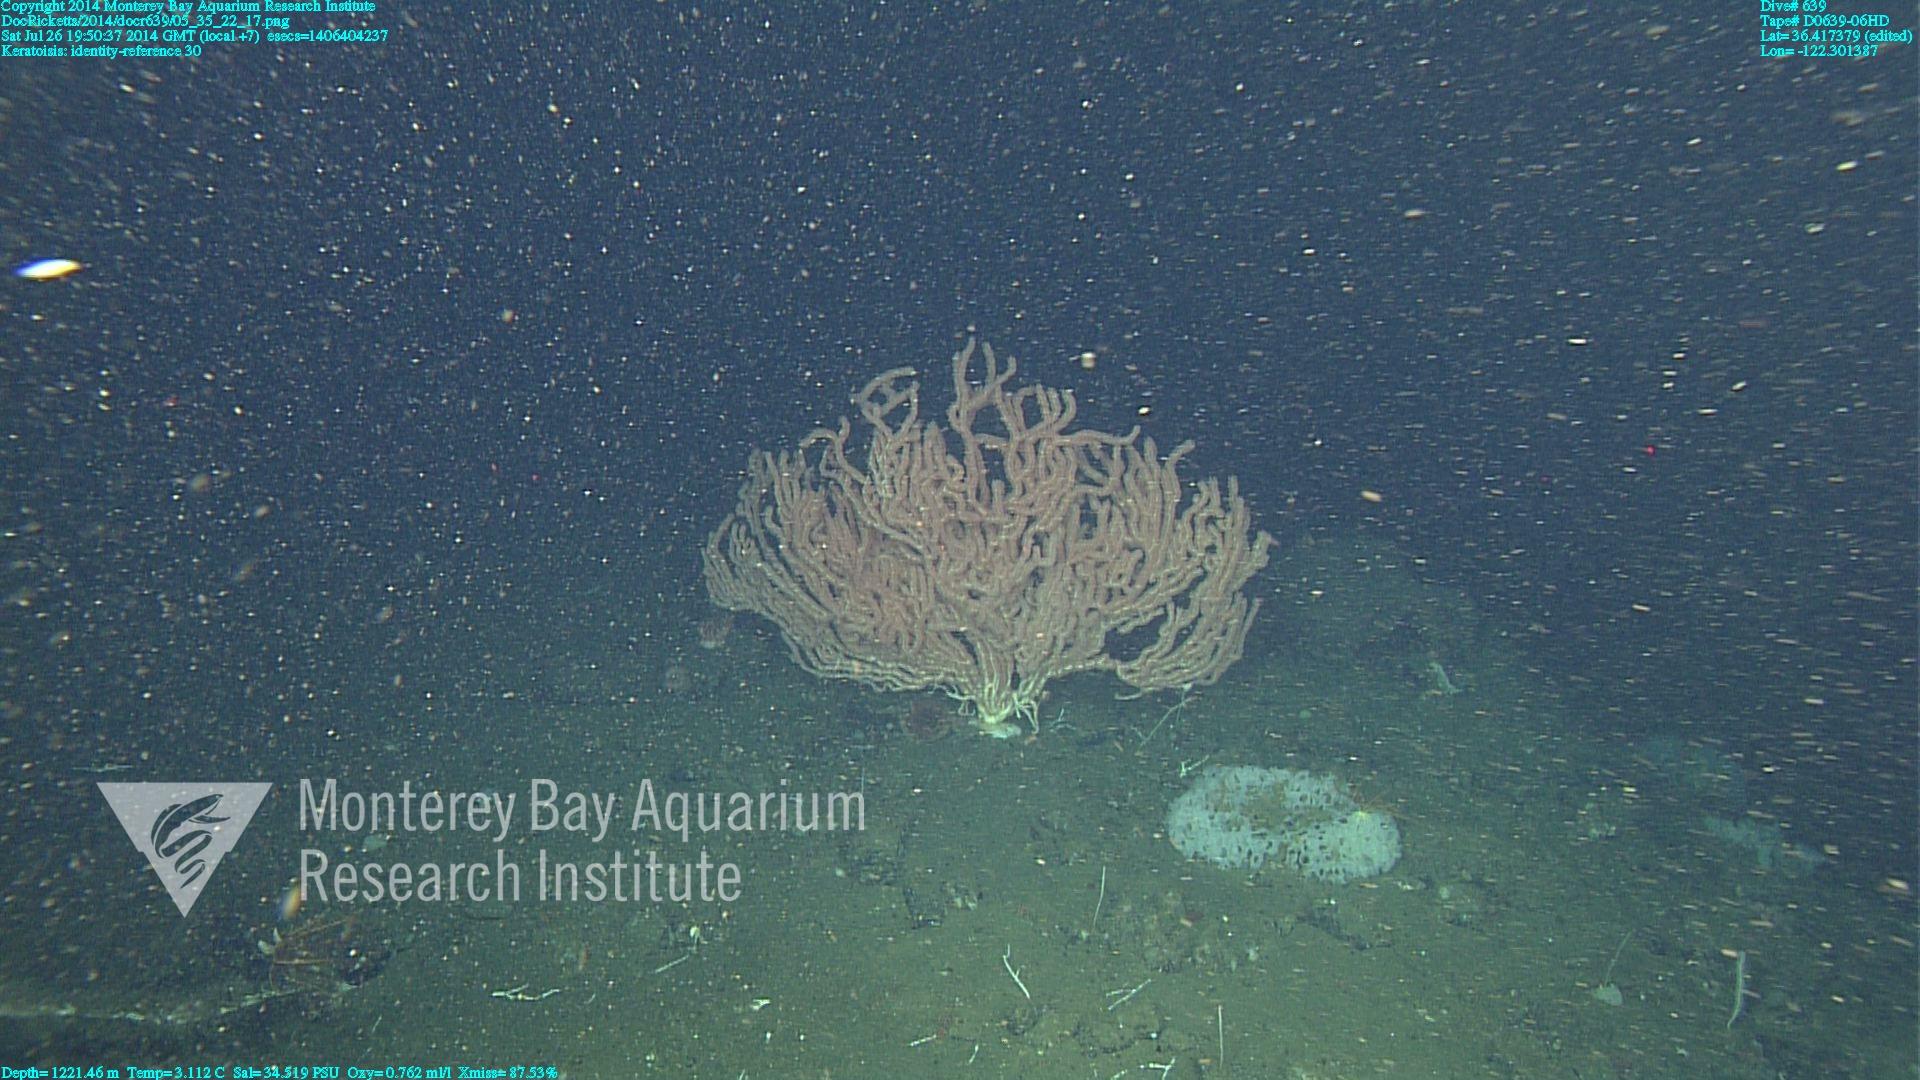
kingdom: Animalia
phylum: Cnidaria
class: Anthozoa
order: Scleralcyonacea
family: Keratoisididae
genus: Keratoisis
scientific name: Keratoisis
